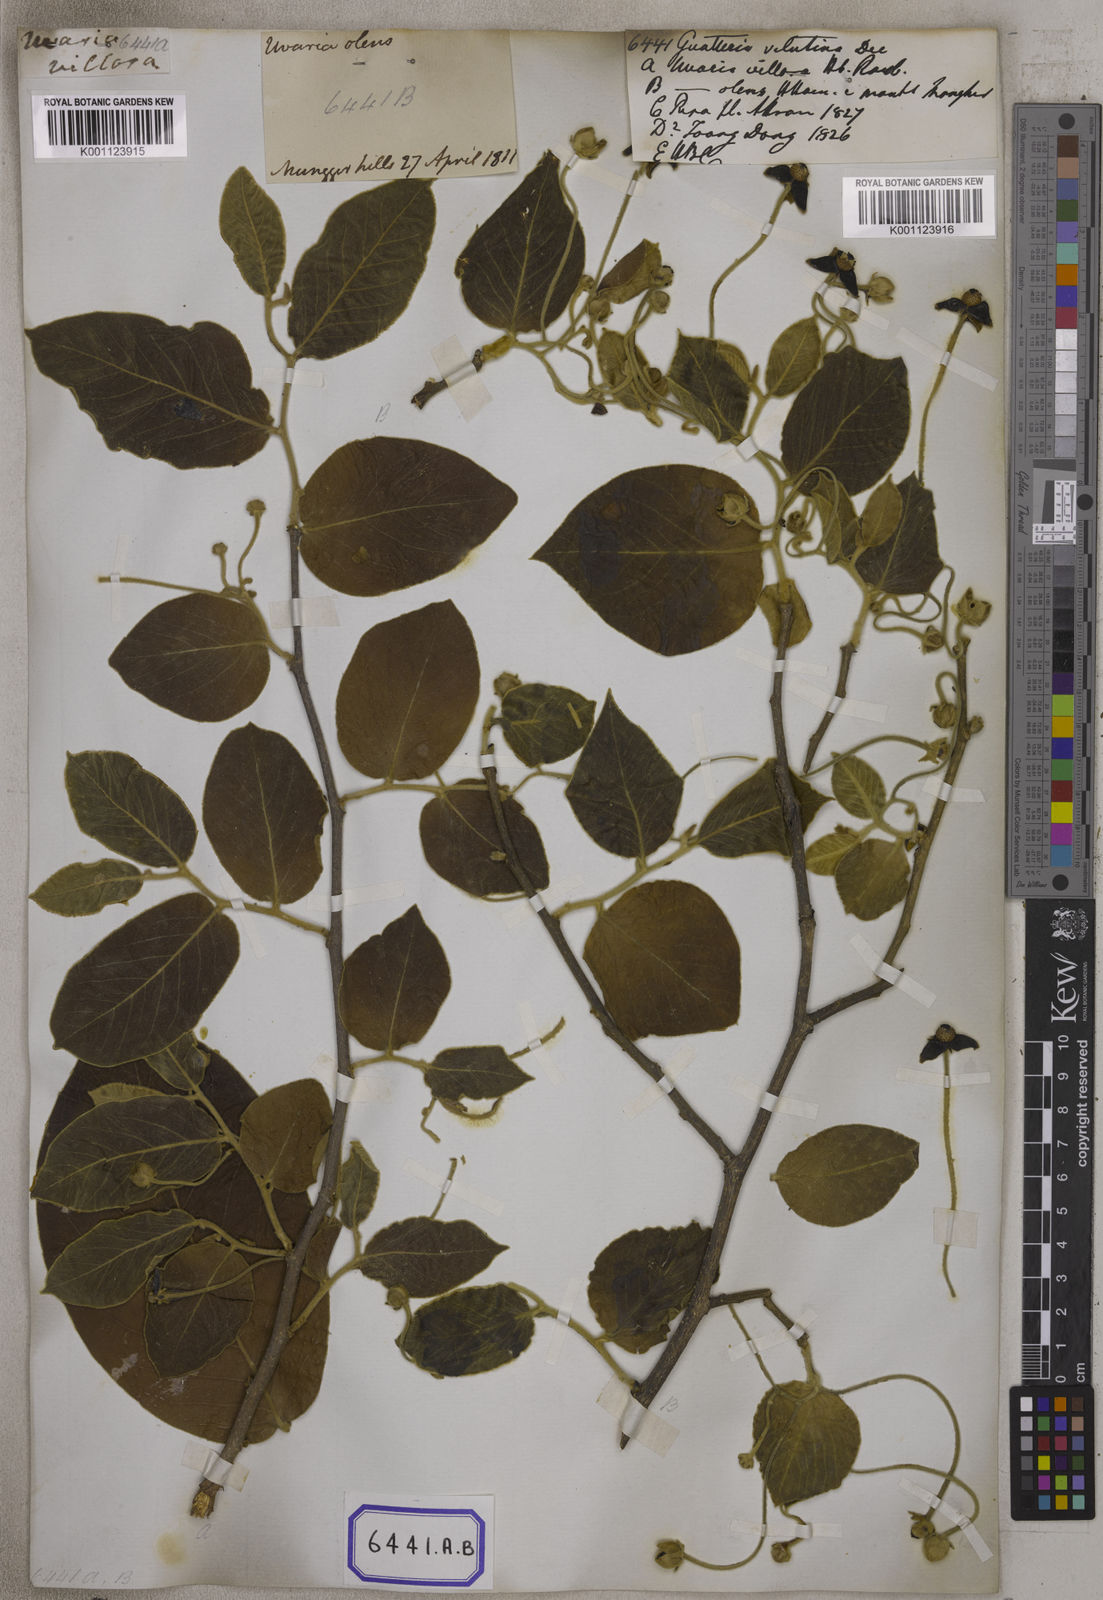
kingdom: Plantae
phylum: Tracheophyta
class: Magnoliopsida
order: Magnoliales
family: Annonaceae
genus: Miliusa
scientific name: Miliusa velutina
